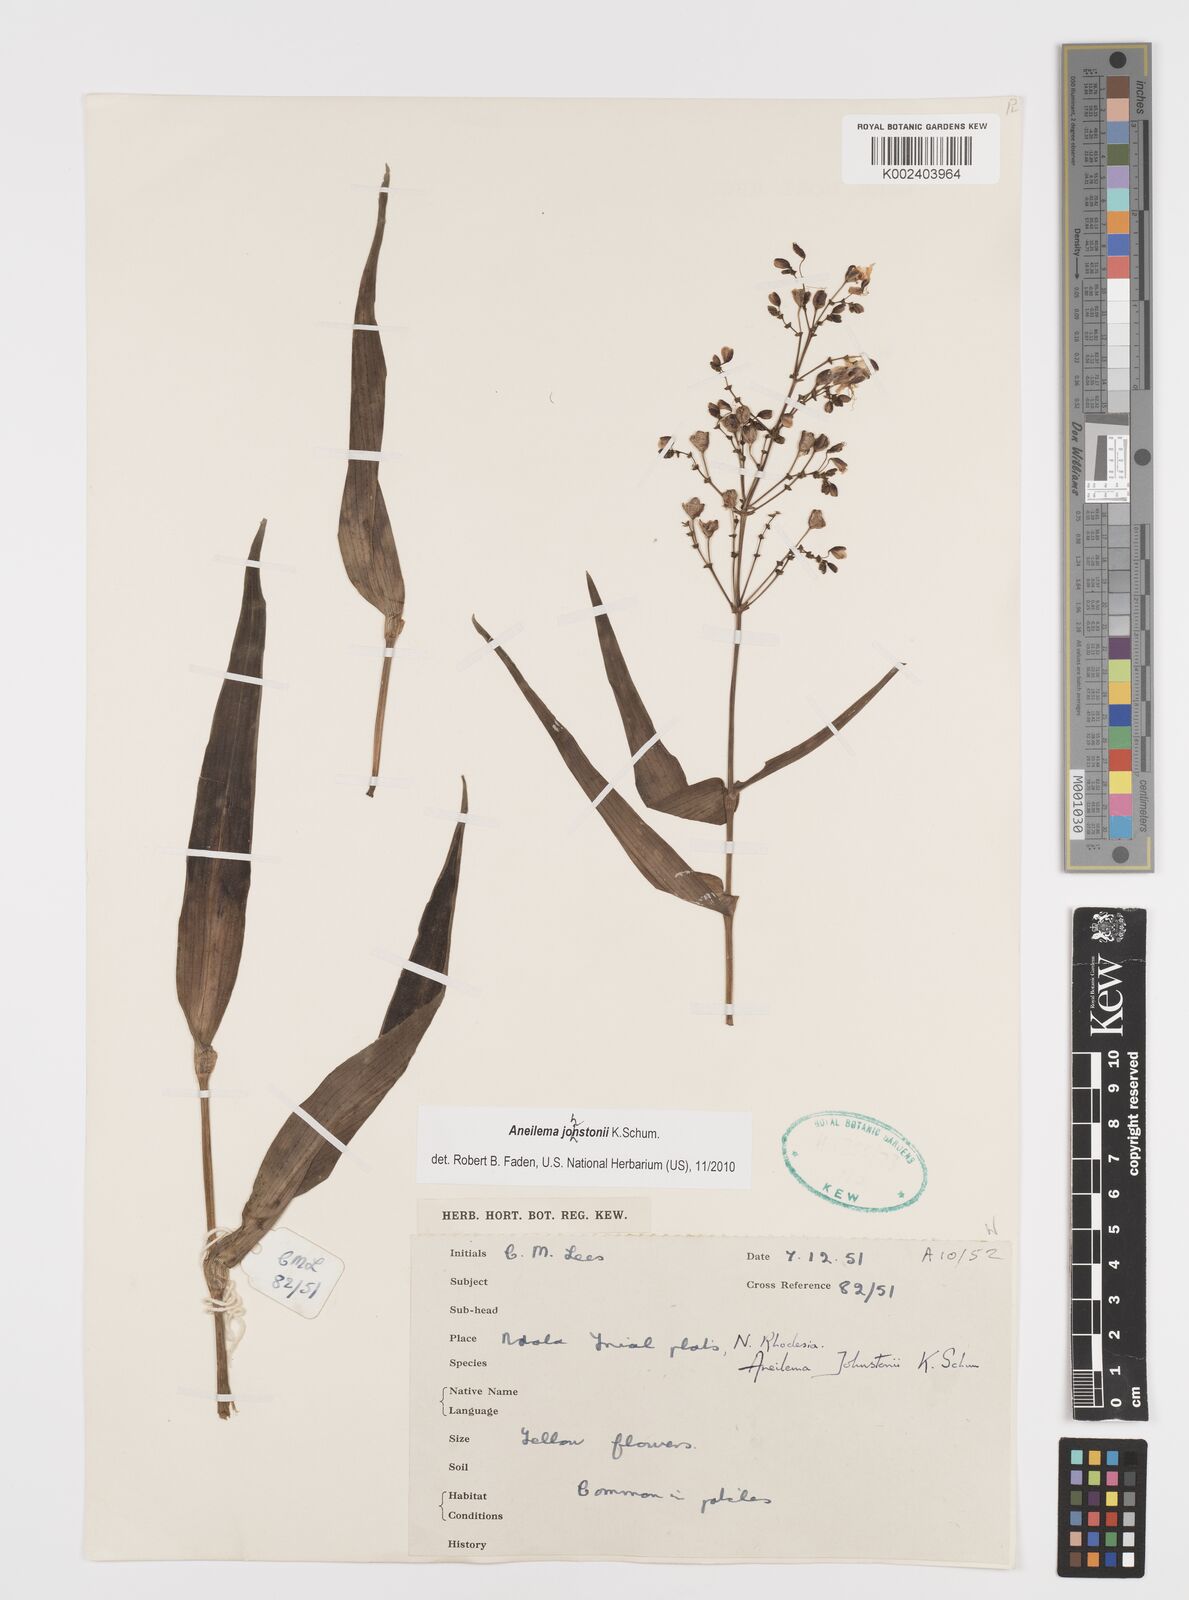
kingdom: Plantae
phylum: Tracheophyta
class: Liliopsida
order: Commelinales
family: Commelinaceae
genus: Aneilema
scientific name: Aneilema johnstonii
